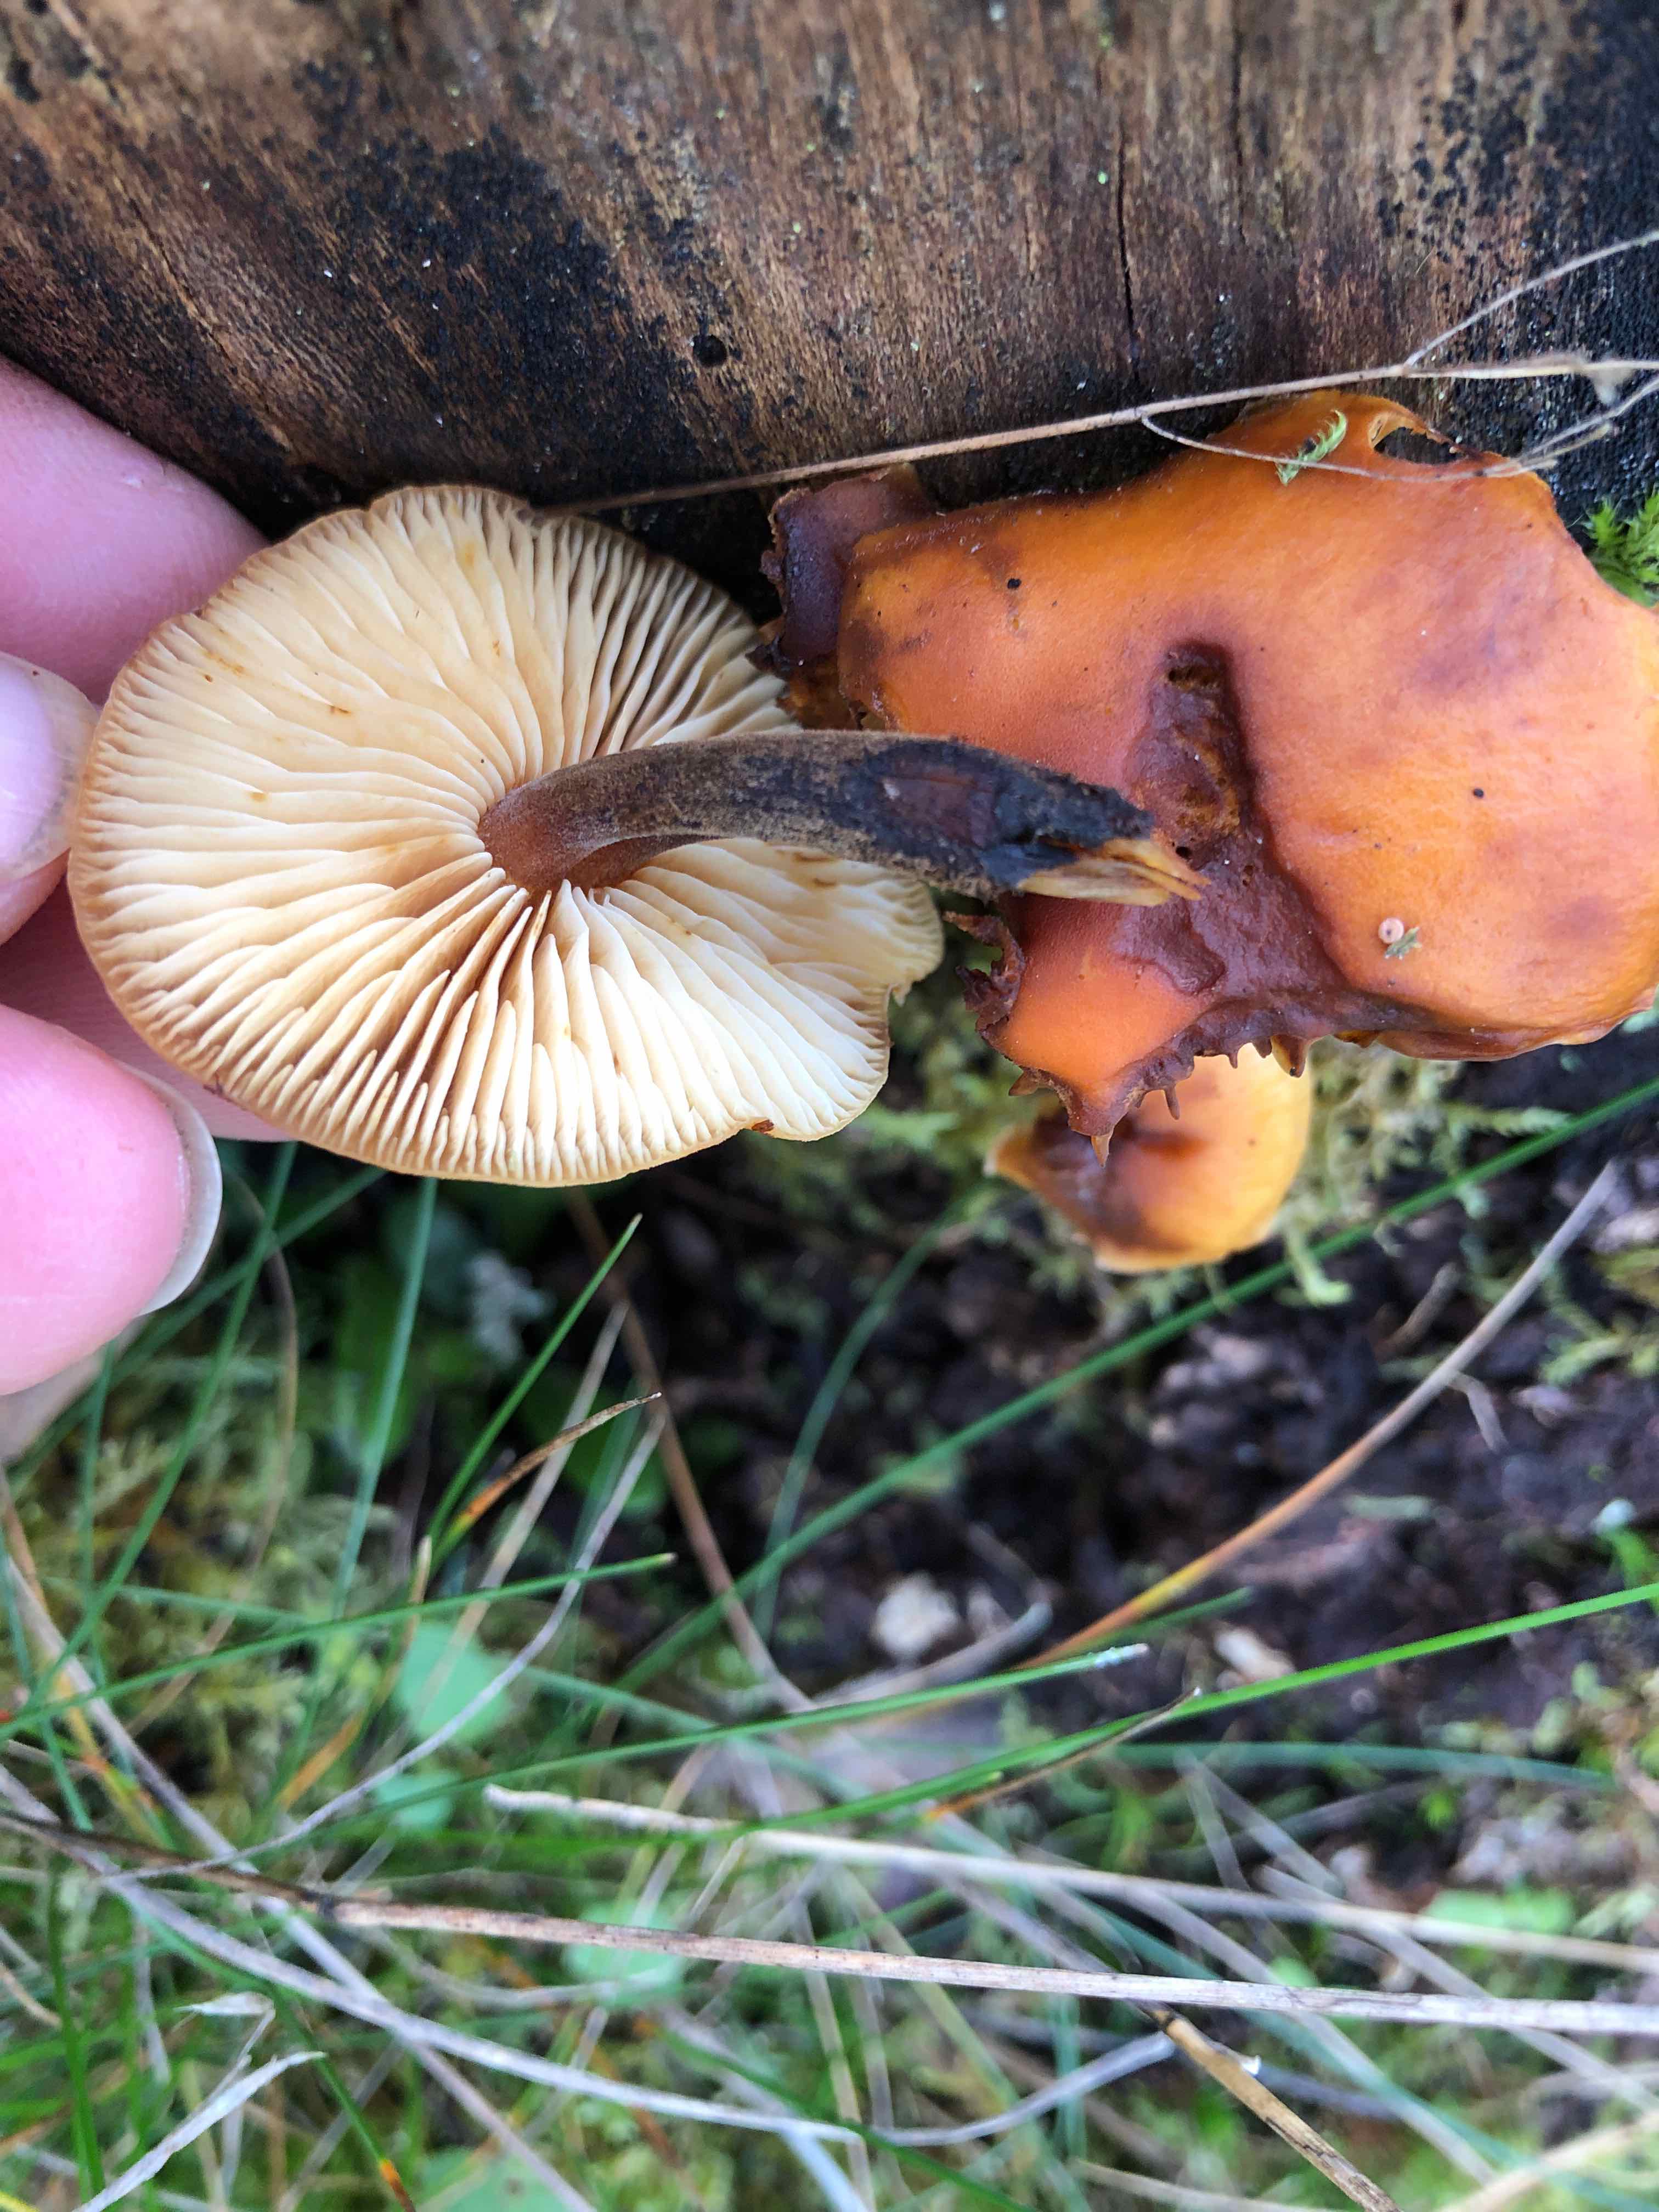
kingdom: Fungi
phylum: Basidiomycota
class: Agaricomycetes
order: Agaricales
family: Physalacriaceae
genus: Flammulina
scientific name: Flammulina
